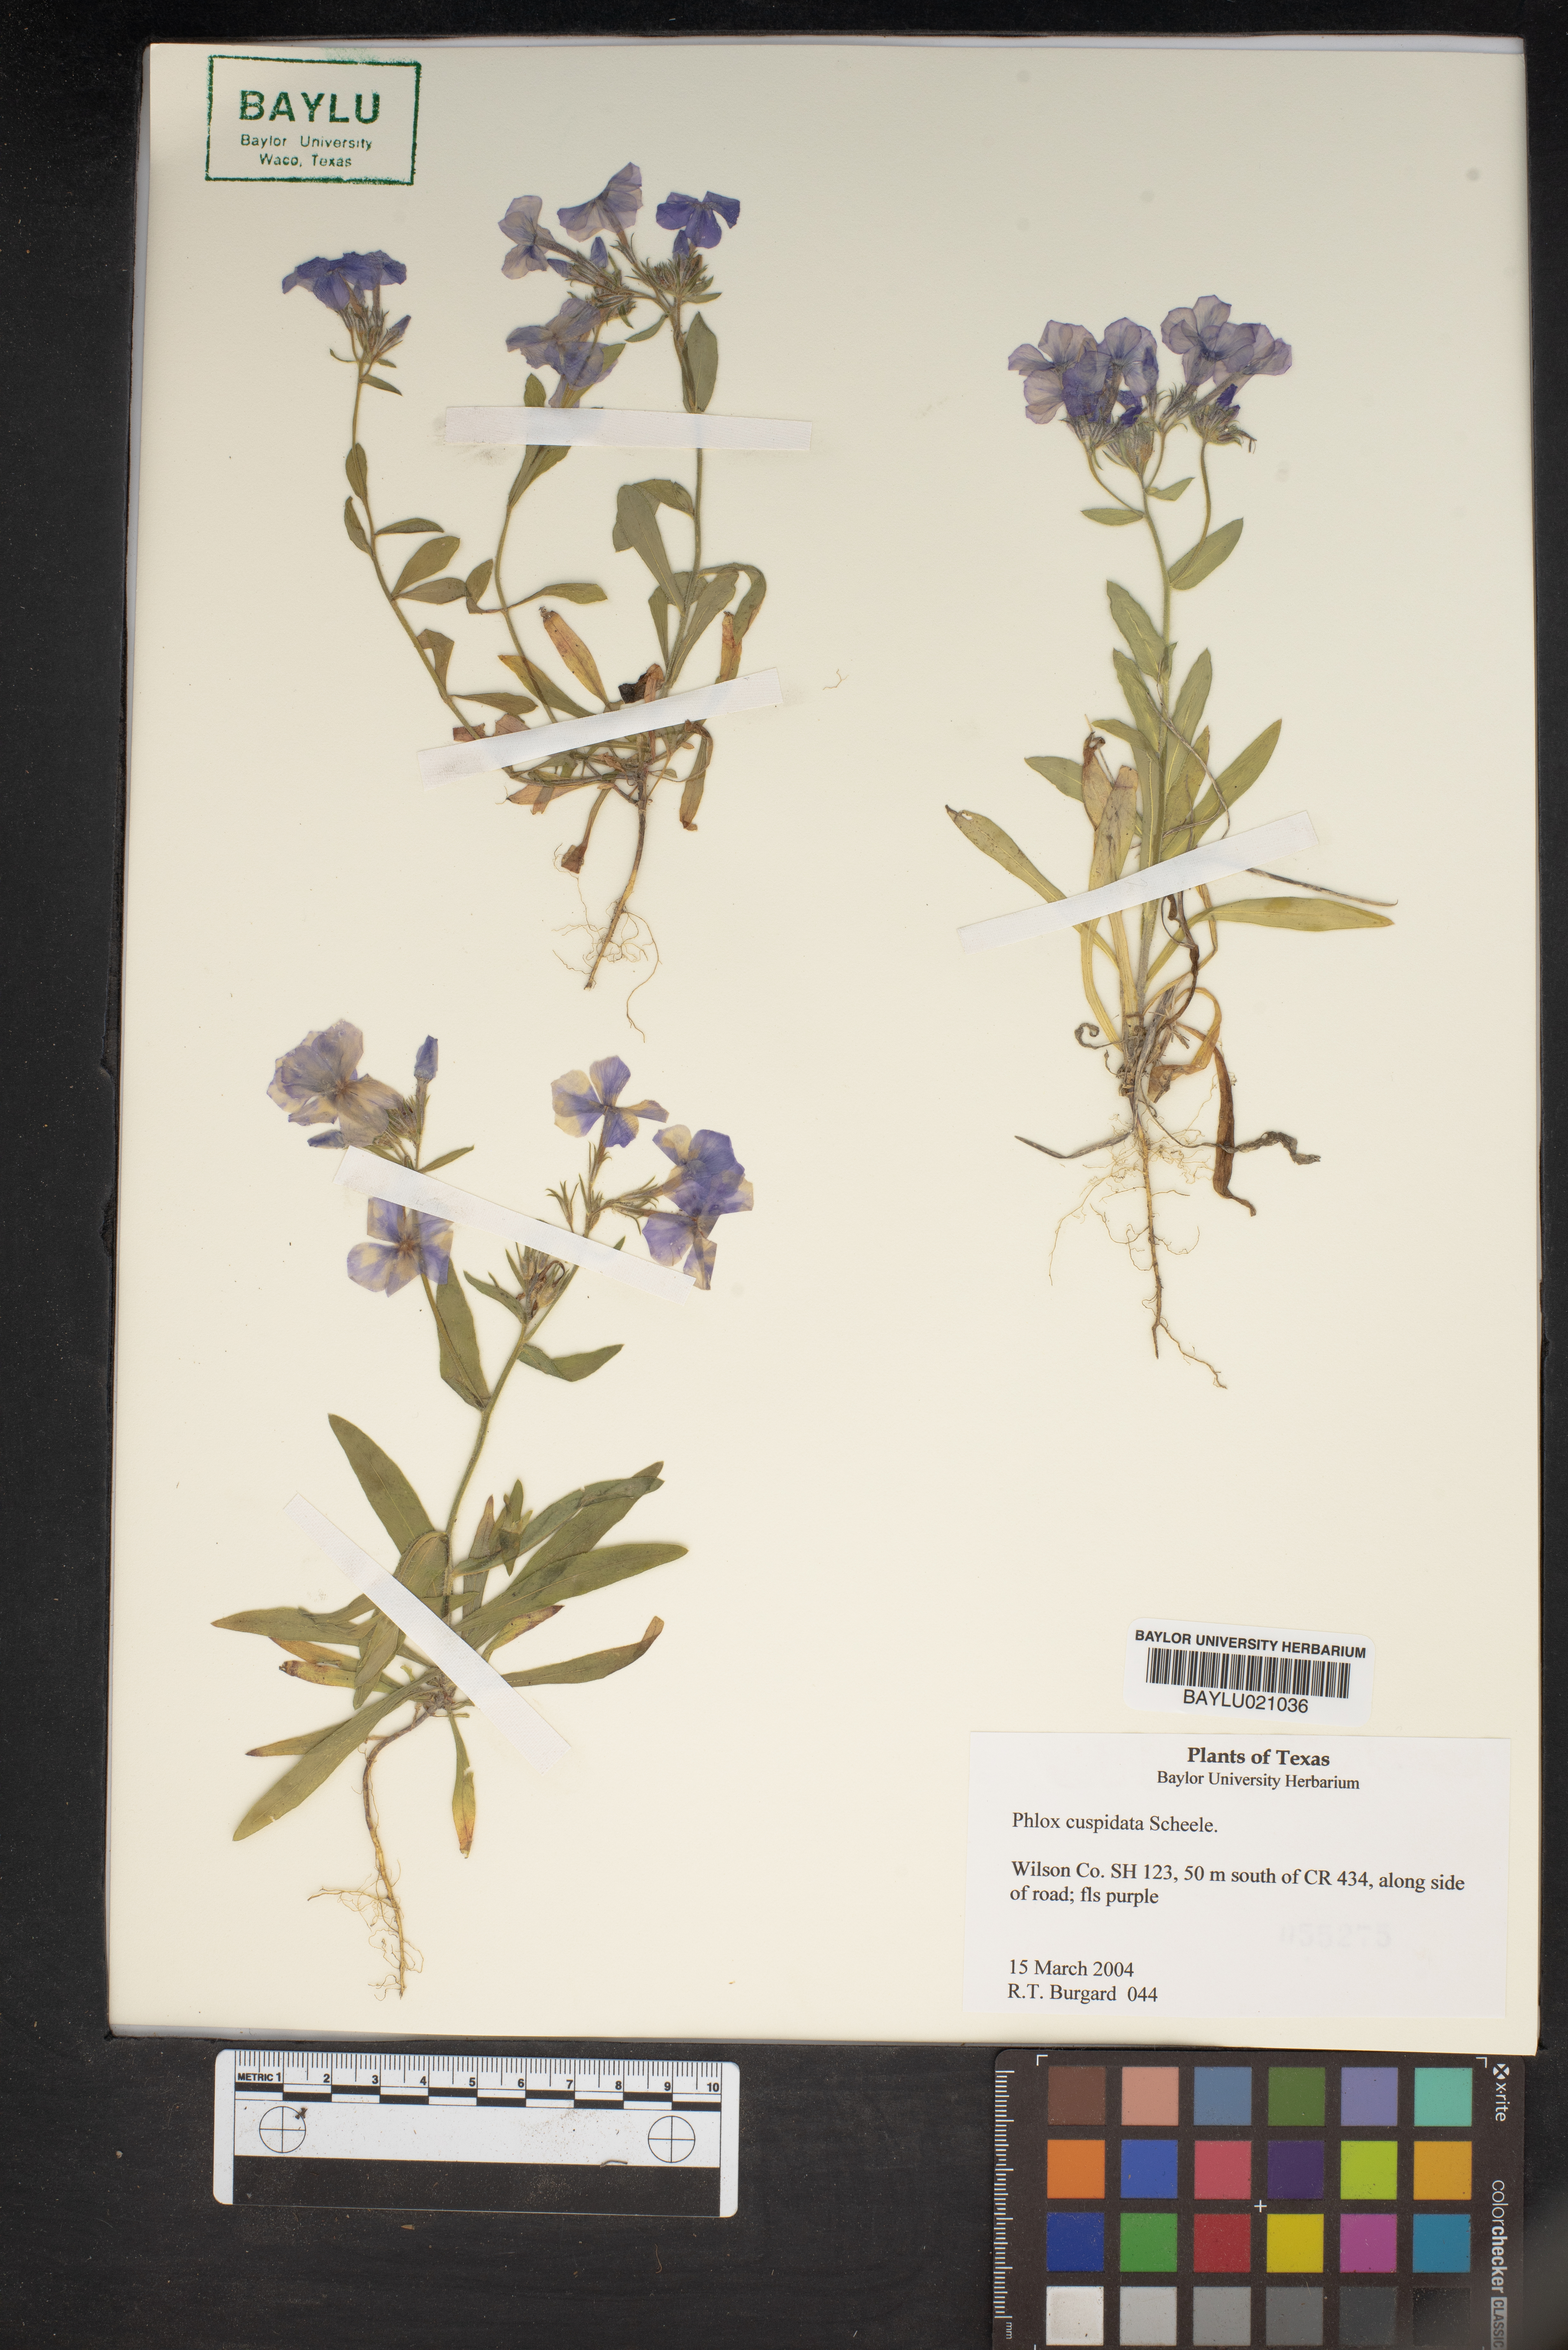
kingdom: Plantae
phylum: Tracheophyta
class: Magnoliopsida
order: Ericales
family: Polemoniaceae
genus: Phlox
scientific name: Phlox cuspidata
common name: Pointed phlox
